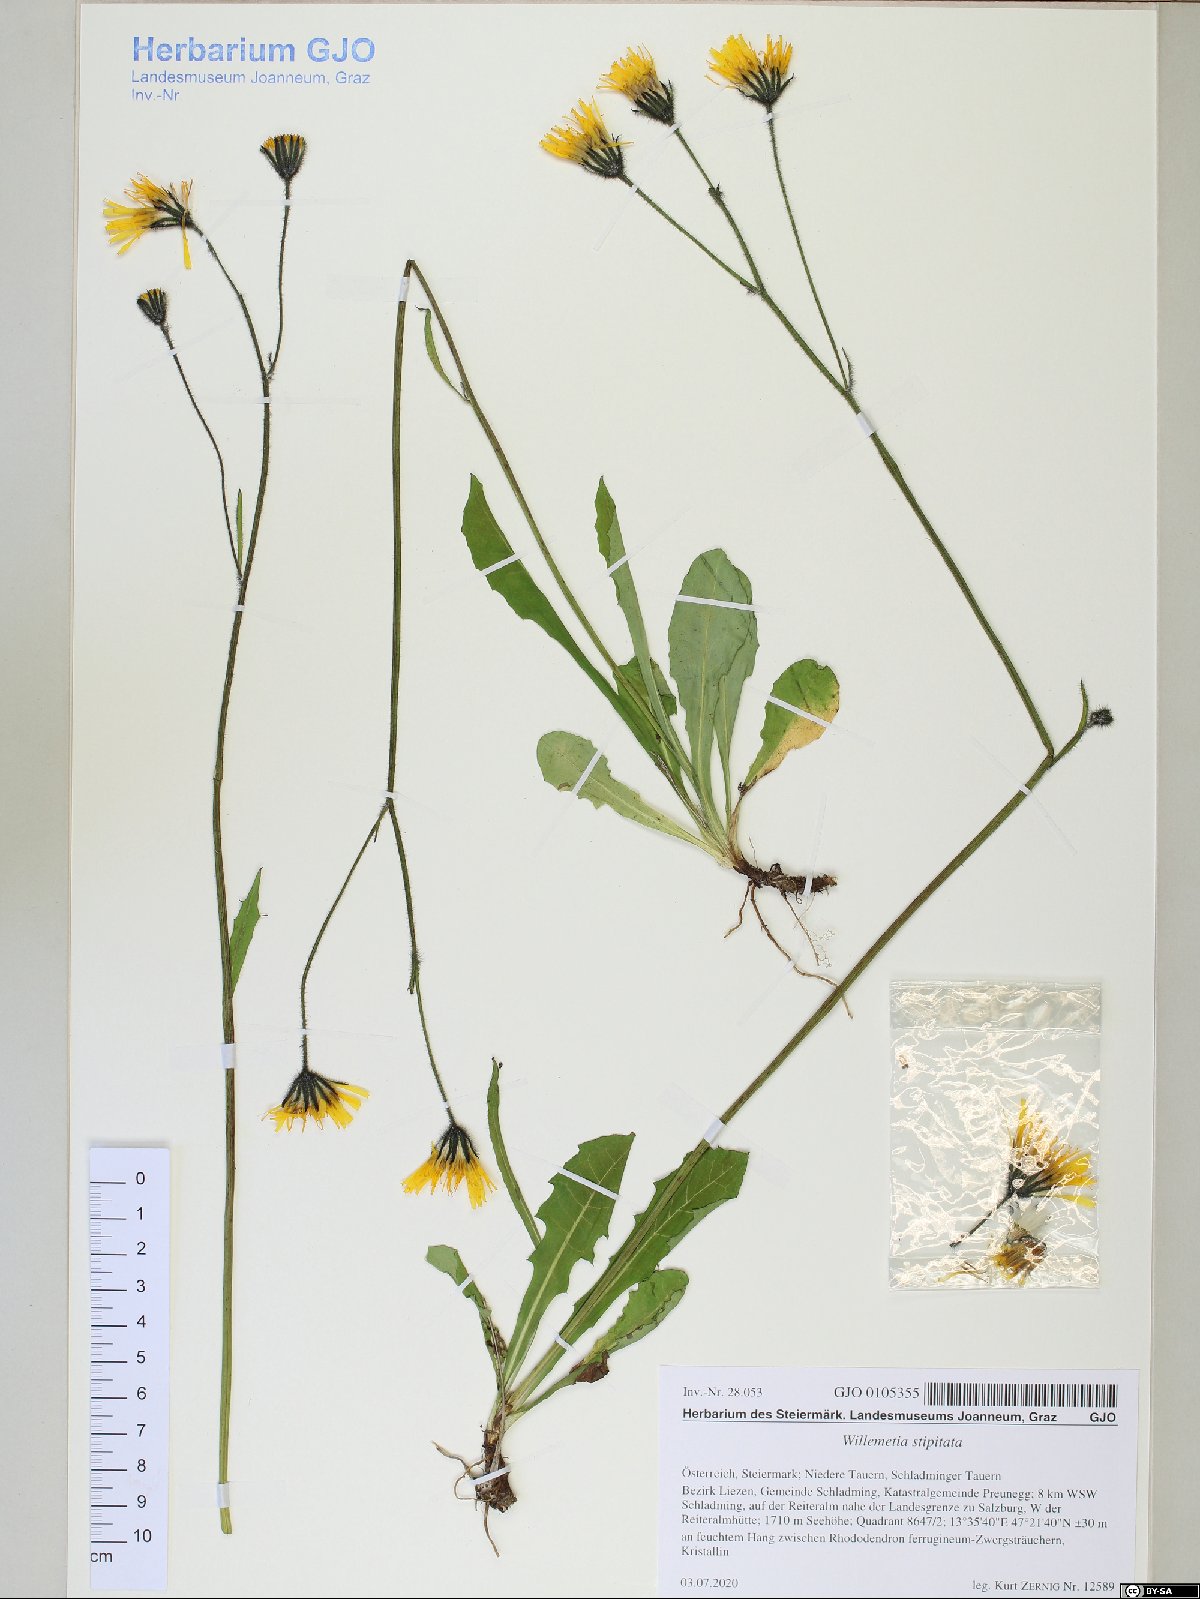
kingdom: Plantae
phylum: Tracheophyta
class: Magnoliopsida
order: Asterales
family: Asteraceae
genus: Willemetia
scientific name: Willemetia stipitata
